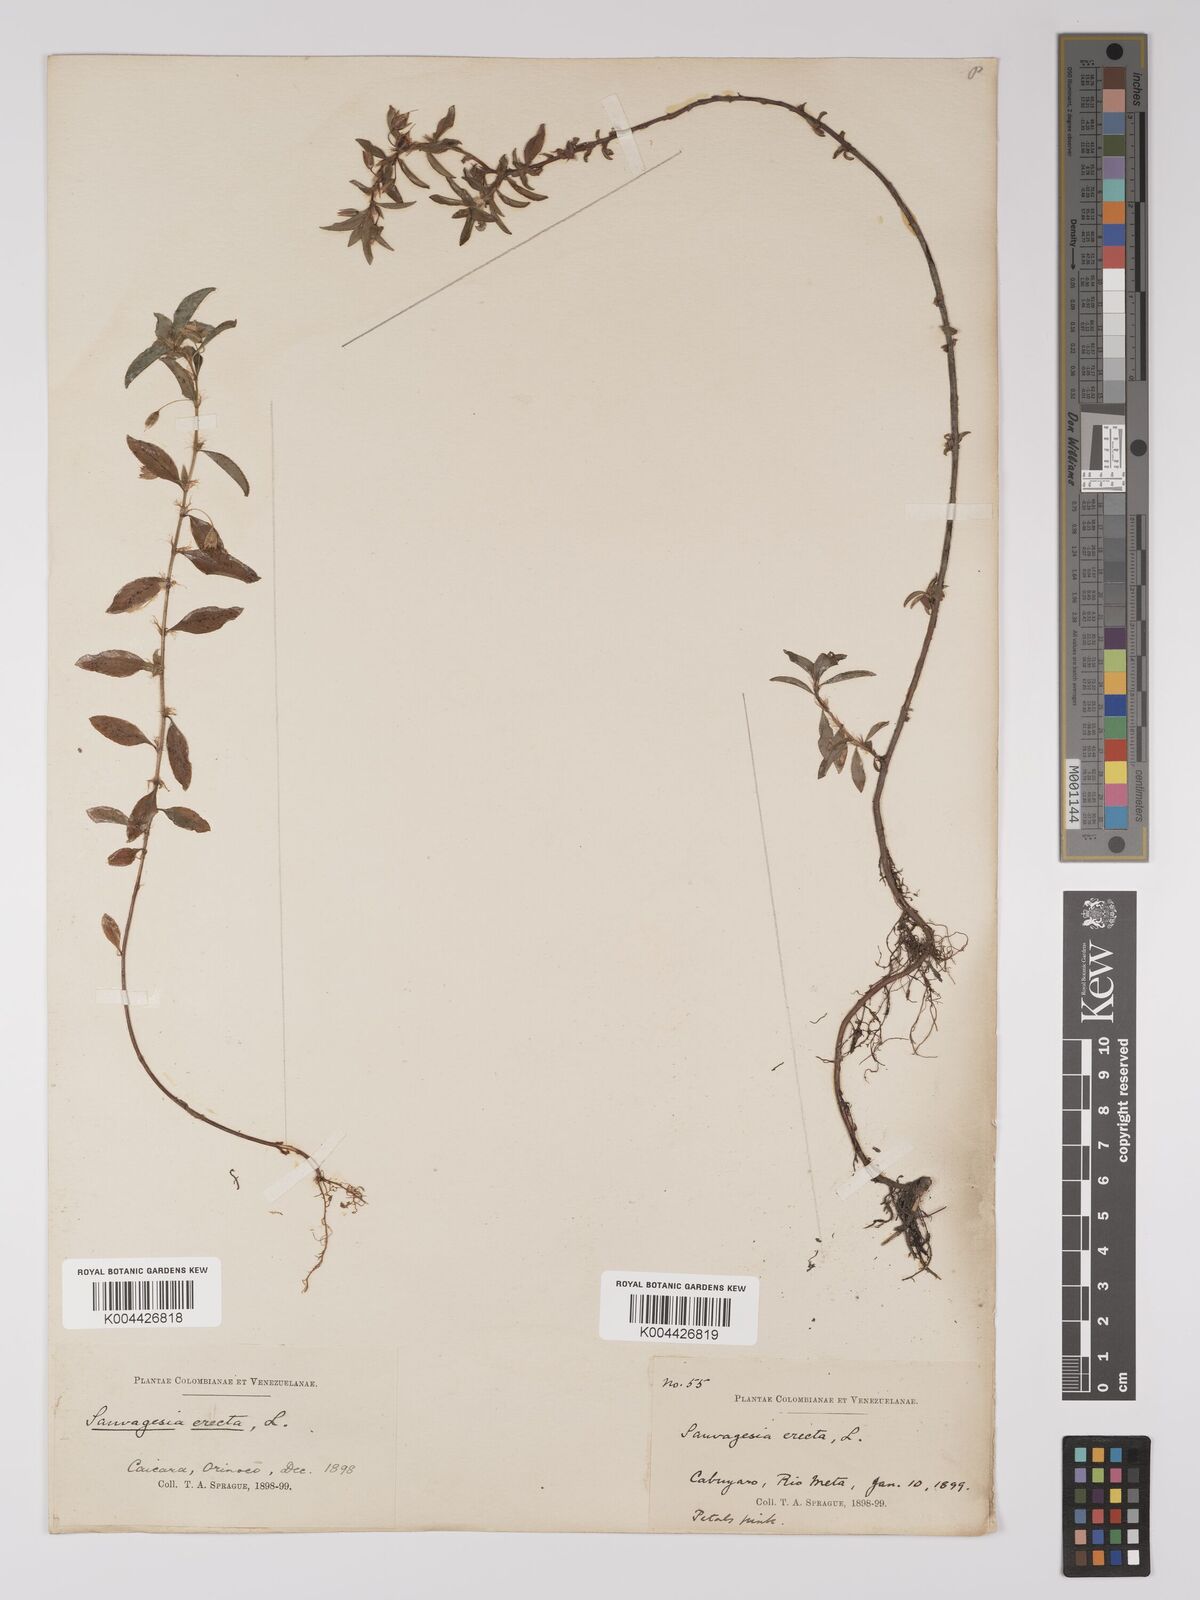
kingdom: Plantae
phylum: Tracheophyta
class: Magnoliopsida
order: Malpighiales
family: Ochnaceae
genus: Sauvagesia
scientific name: Sauvagesia erecta
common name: Creole tea
